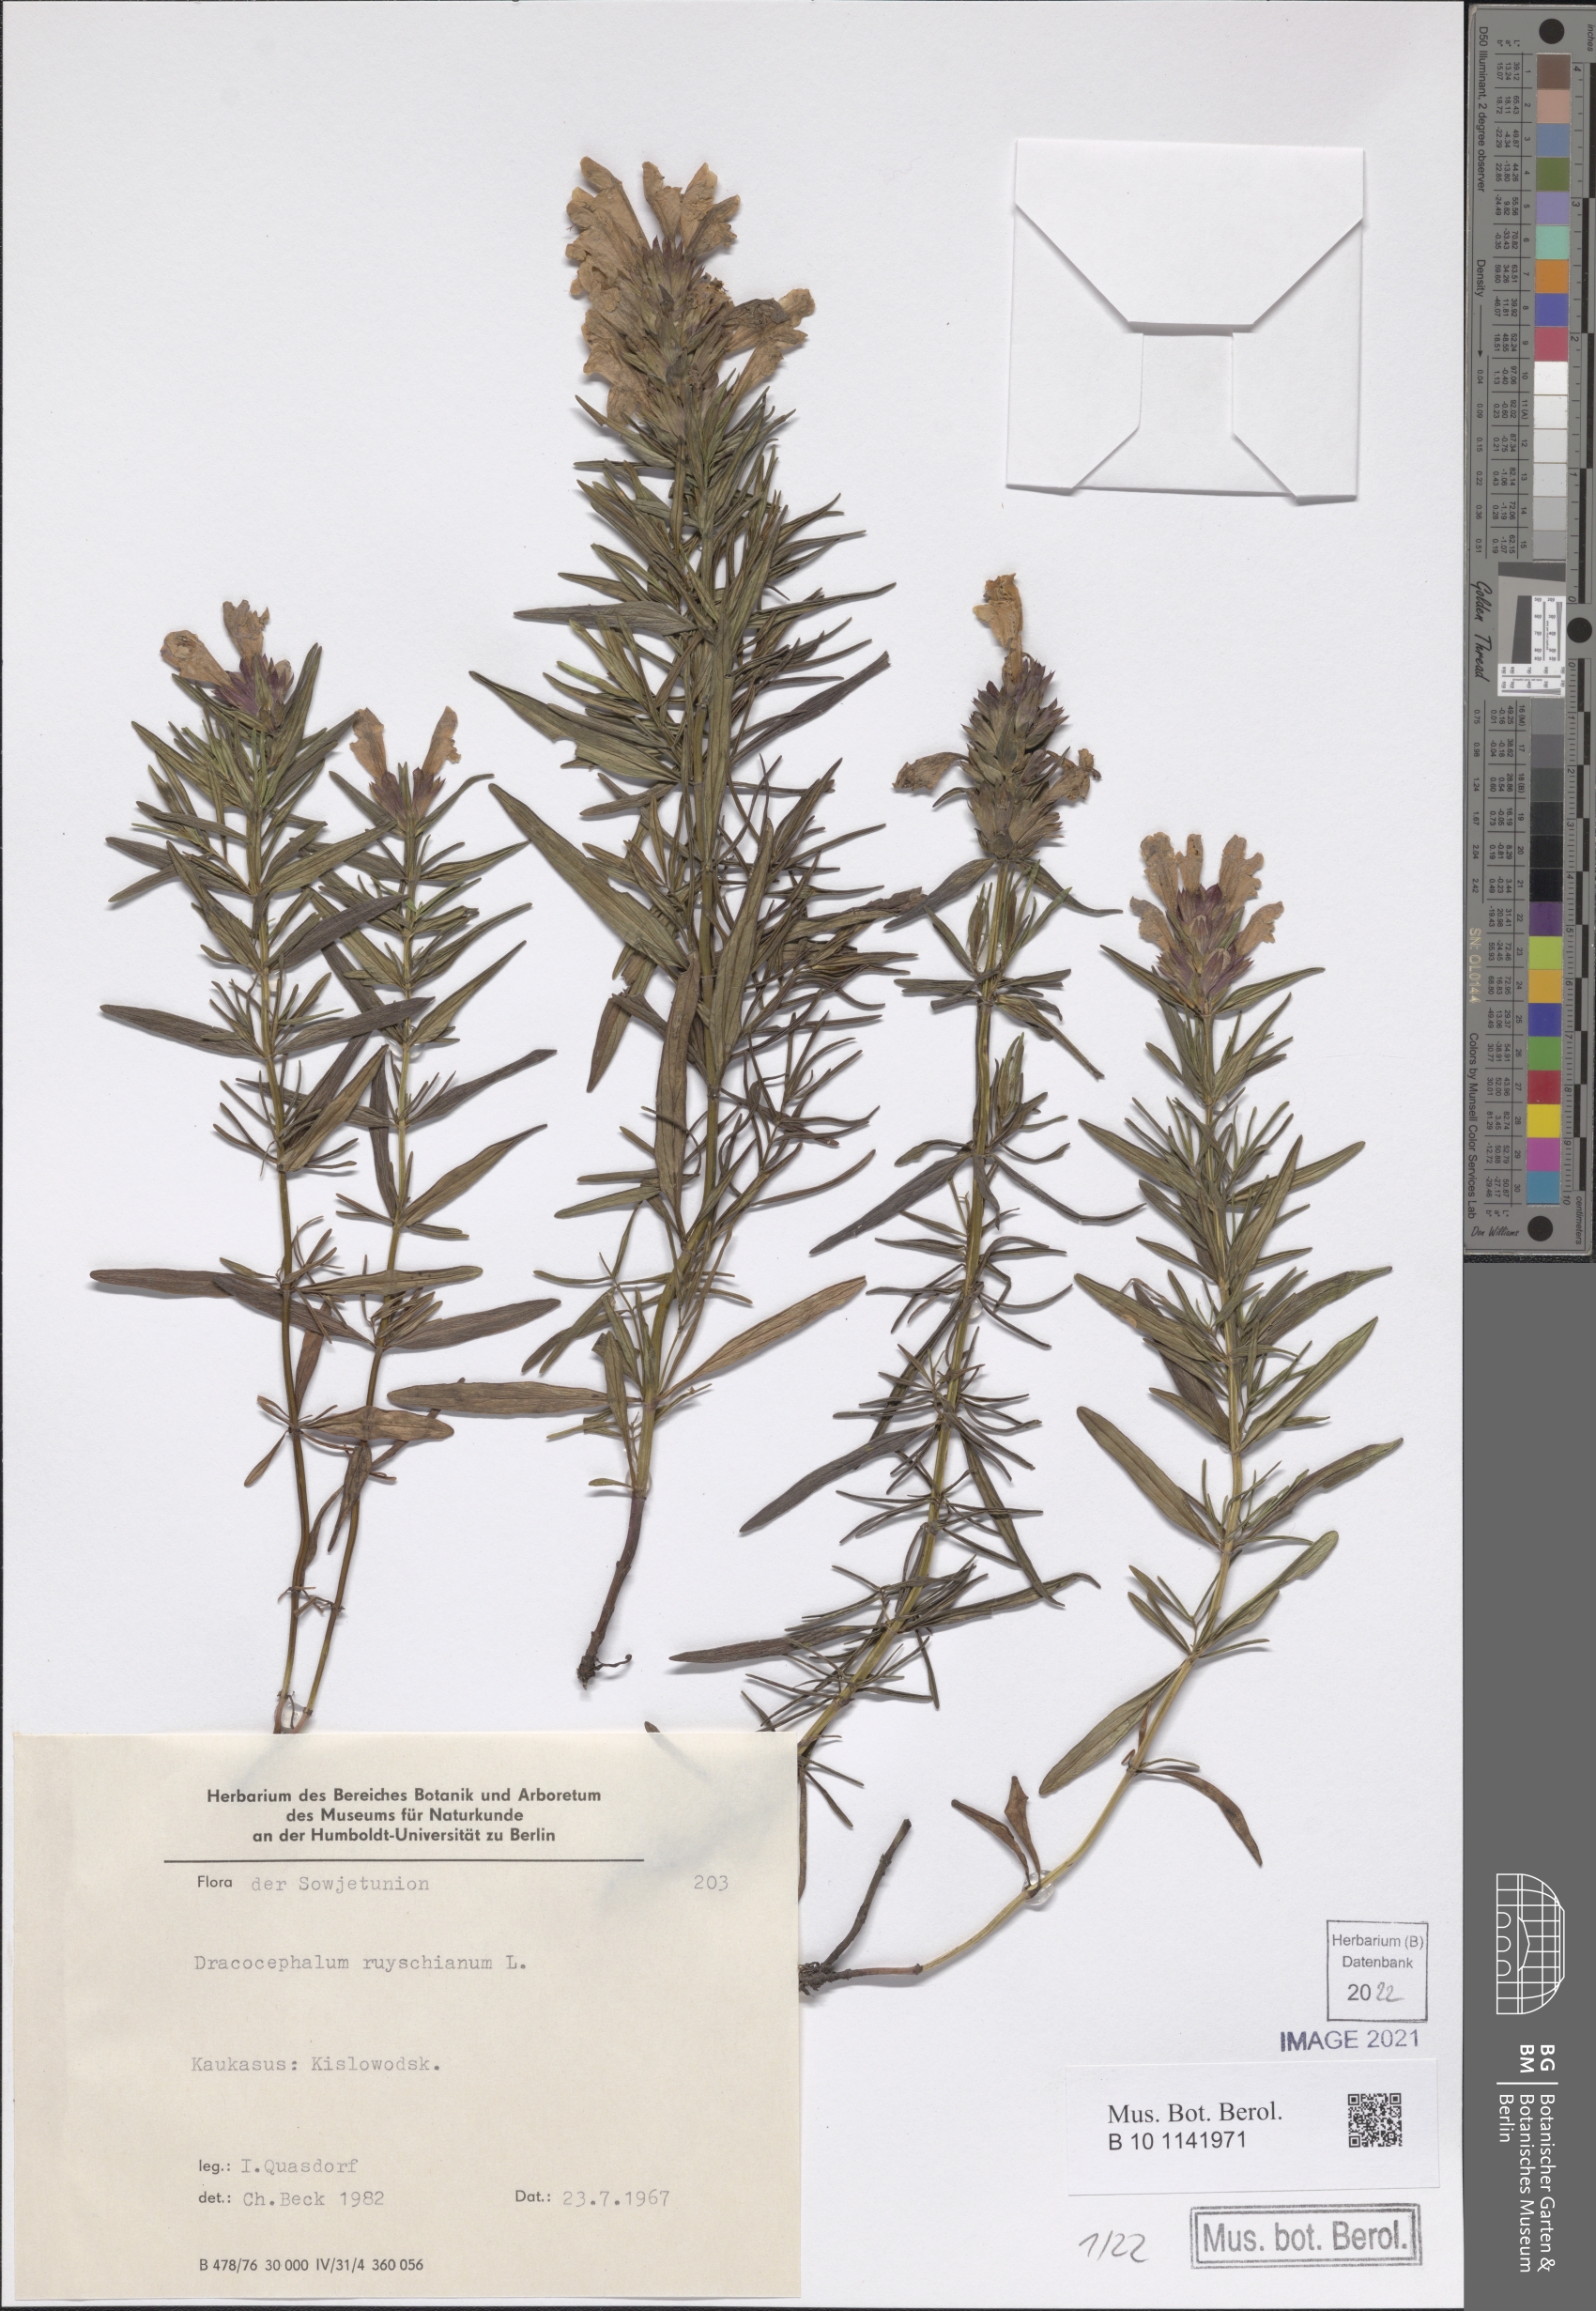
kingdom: Plantae
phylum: Tracheophyta
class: Magnoliopsida
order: Lamiales
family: Lamiaceae
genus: Dracocephalum
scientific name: Dracocephalum ruyschiana
